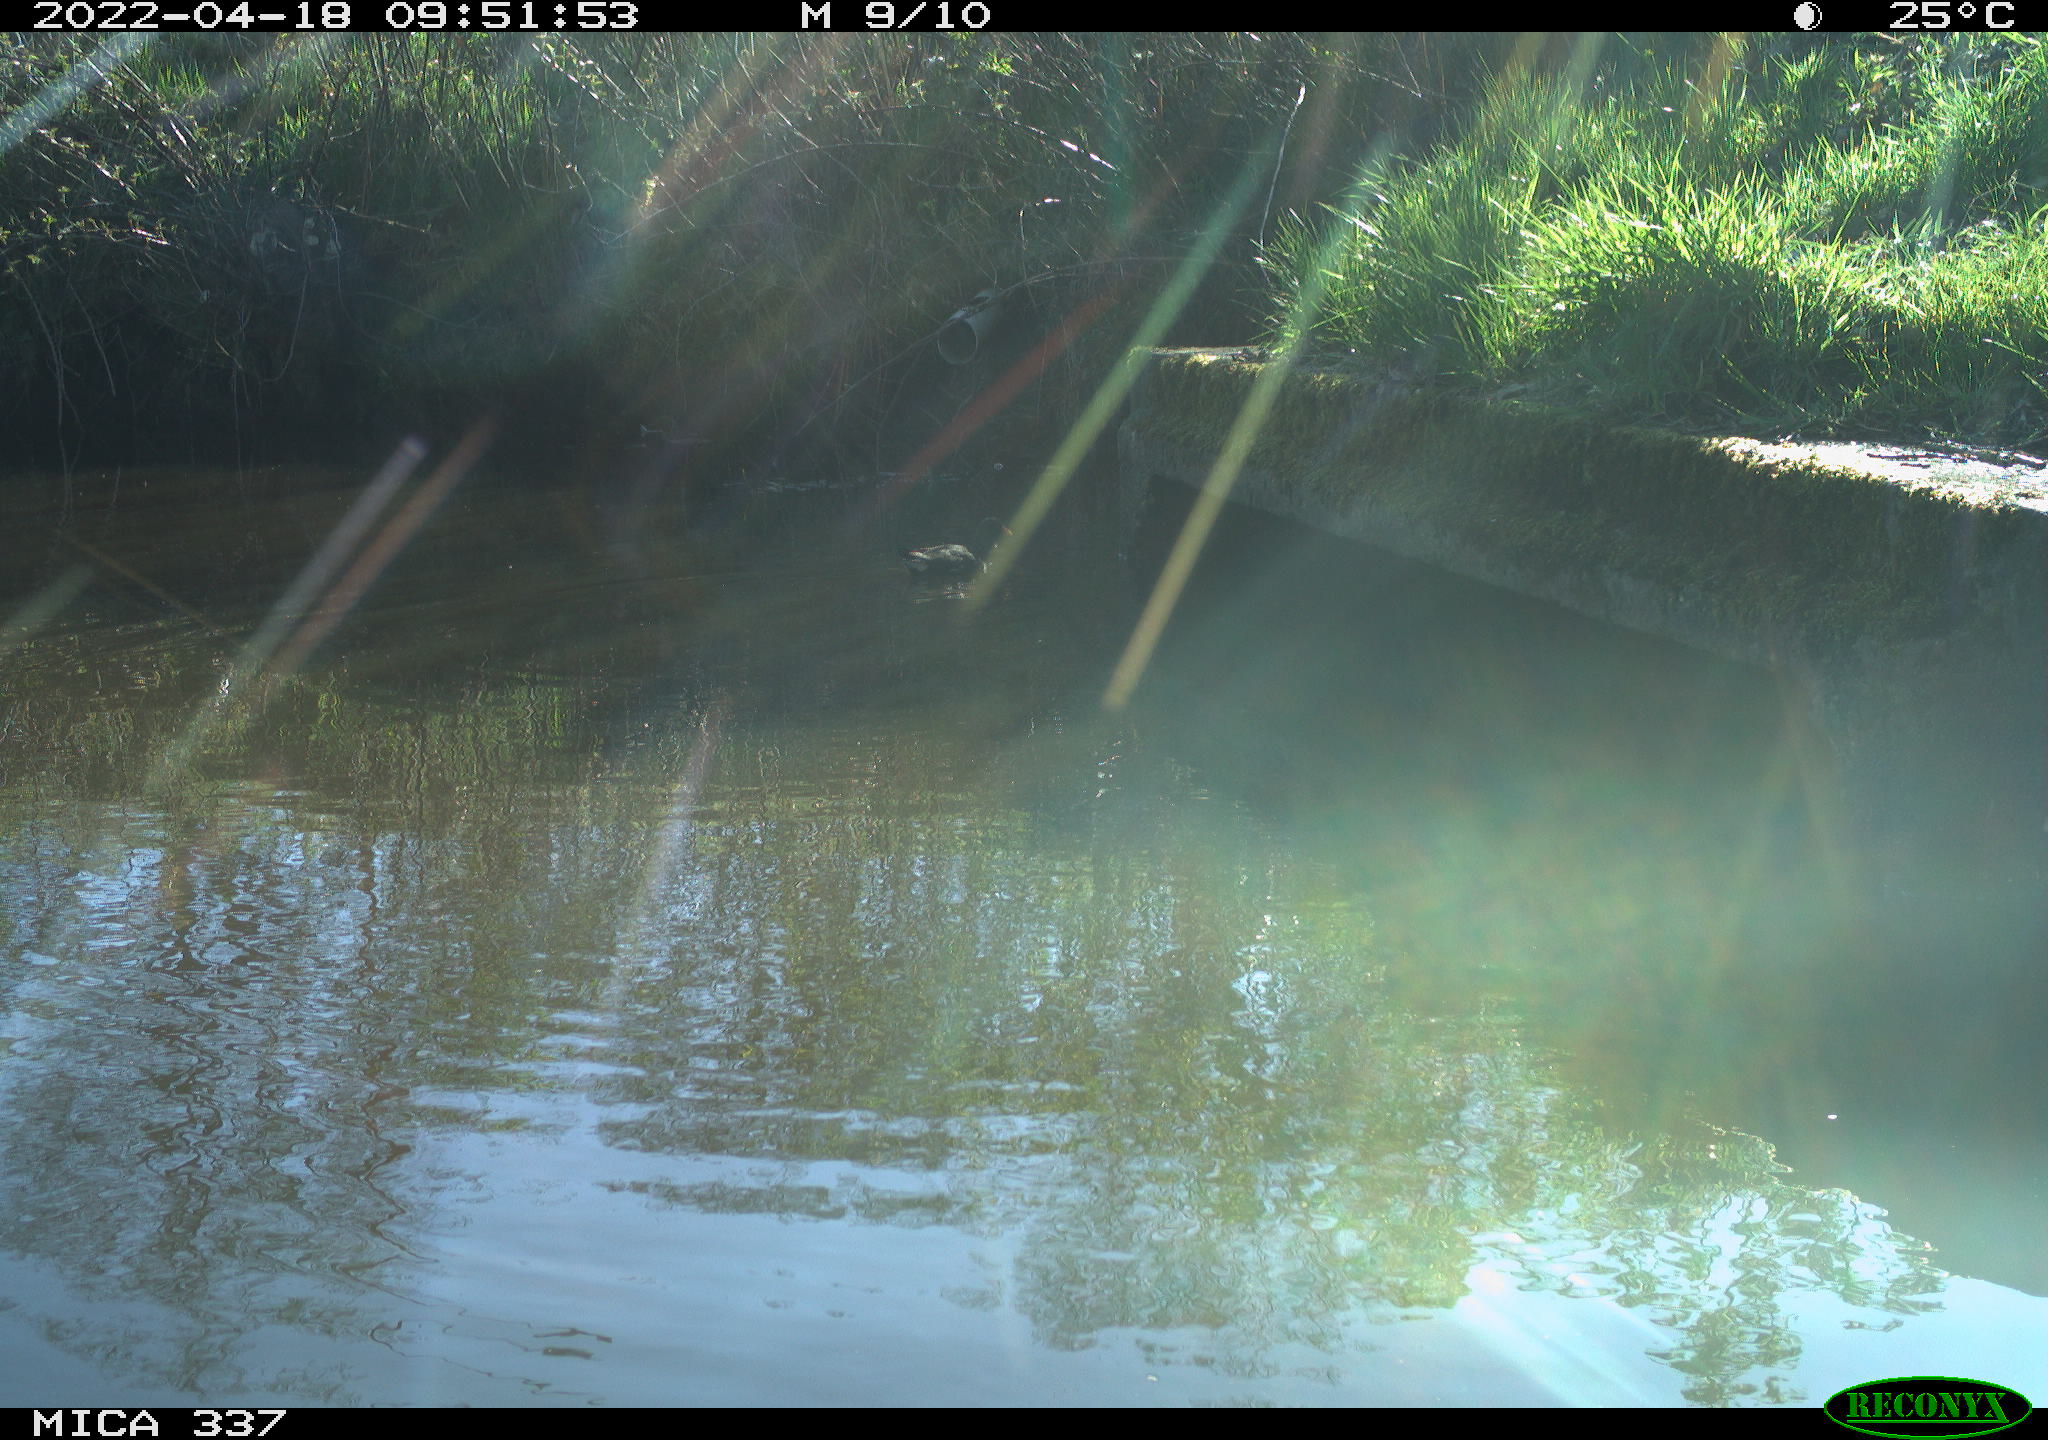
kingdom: Animalia
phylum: Chordata
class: Aves
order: Gruiformes
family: Rallidae
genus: Gallinula
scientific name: Gallinula chloropus
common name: Common moorhen
